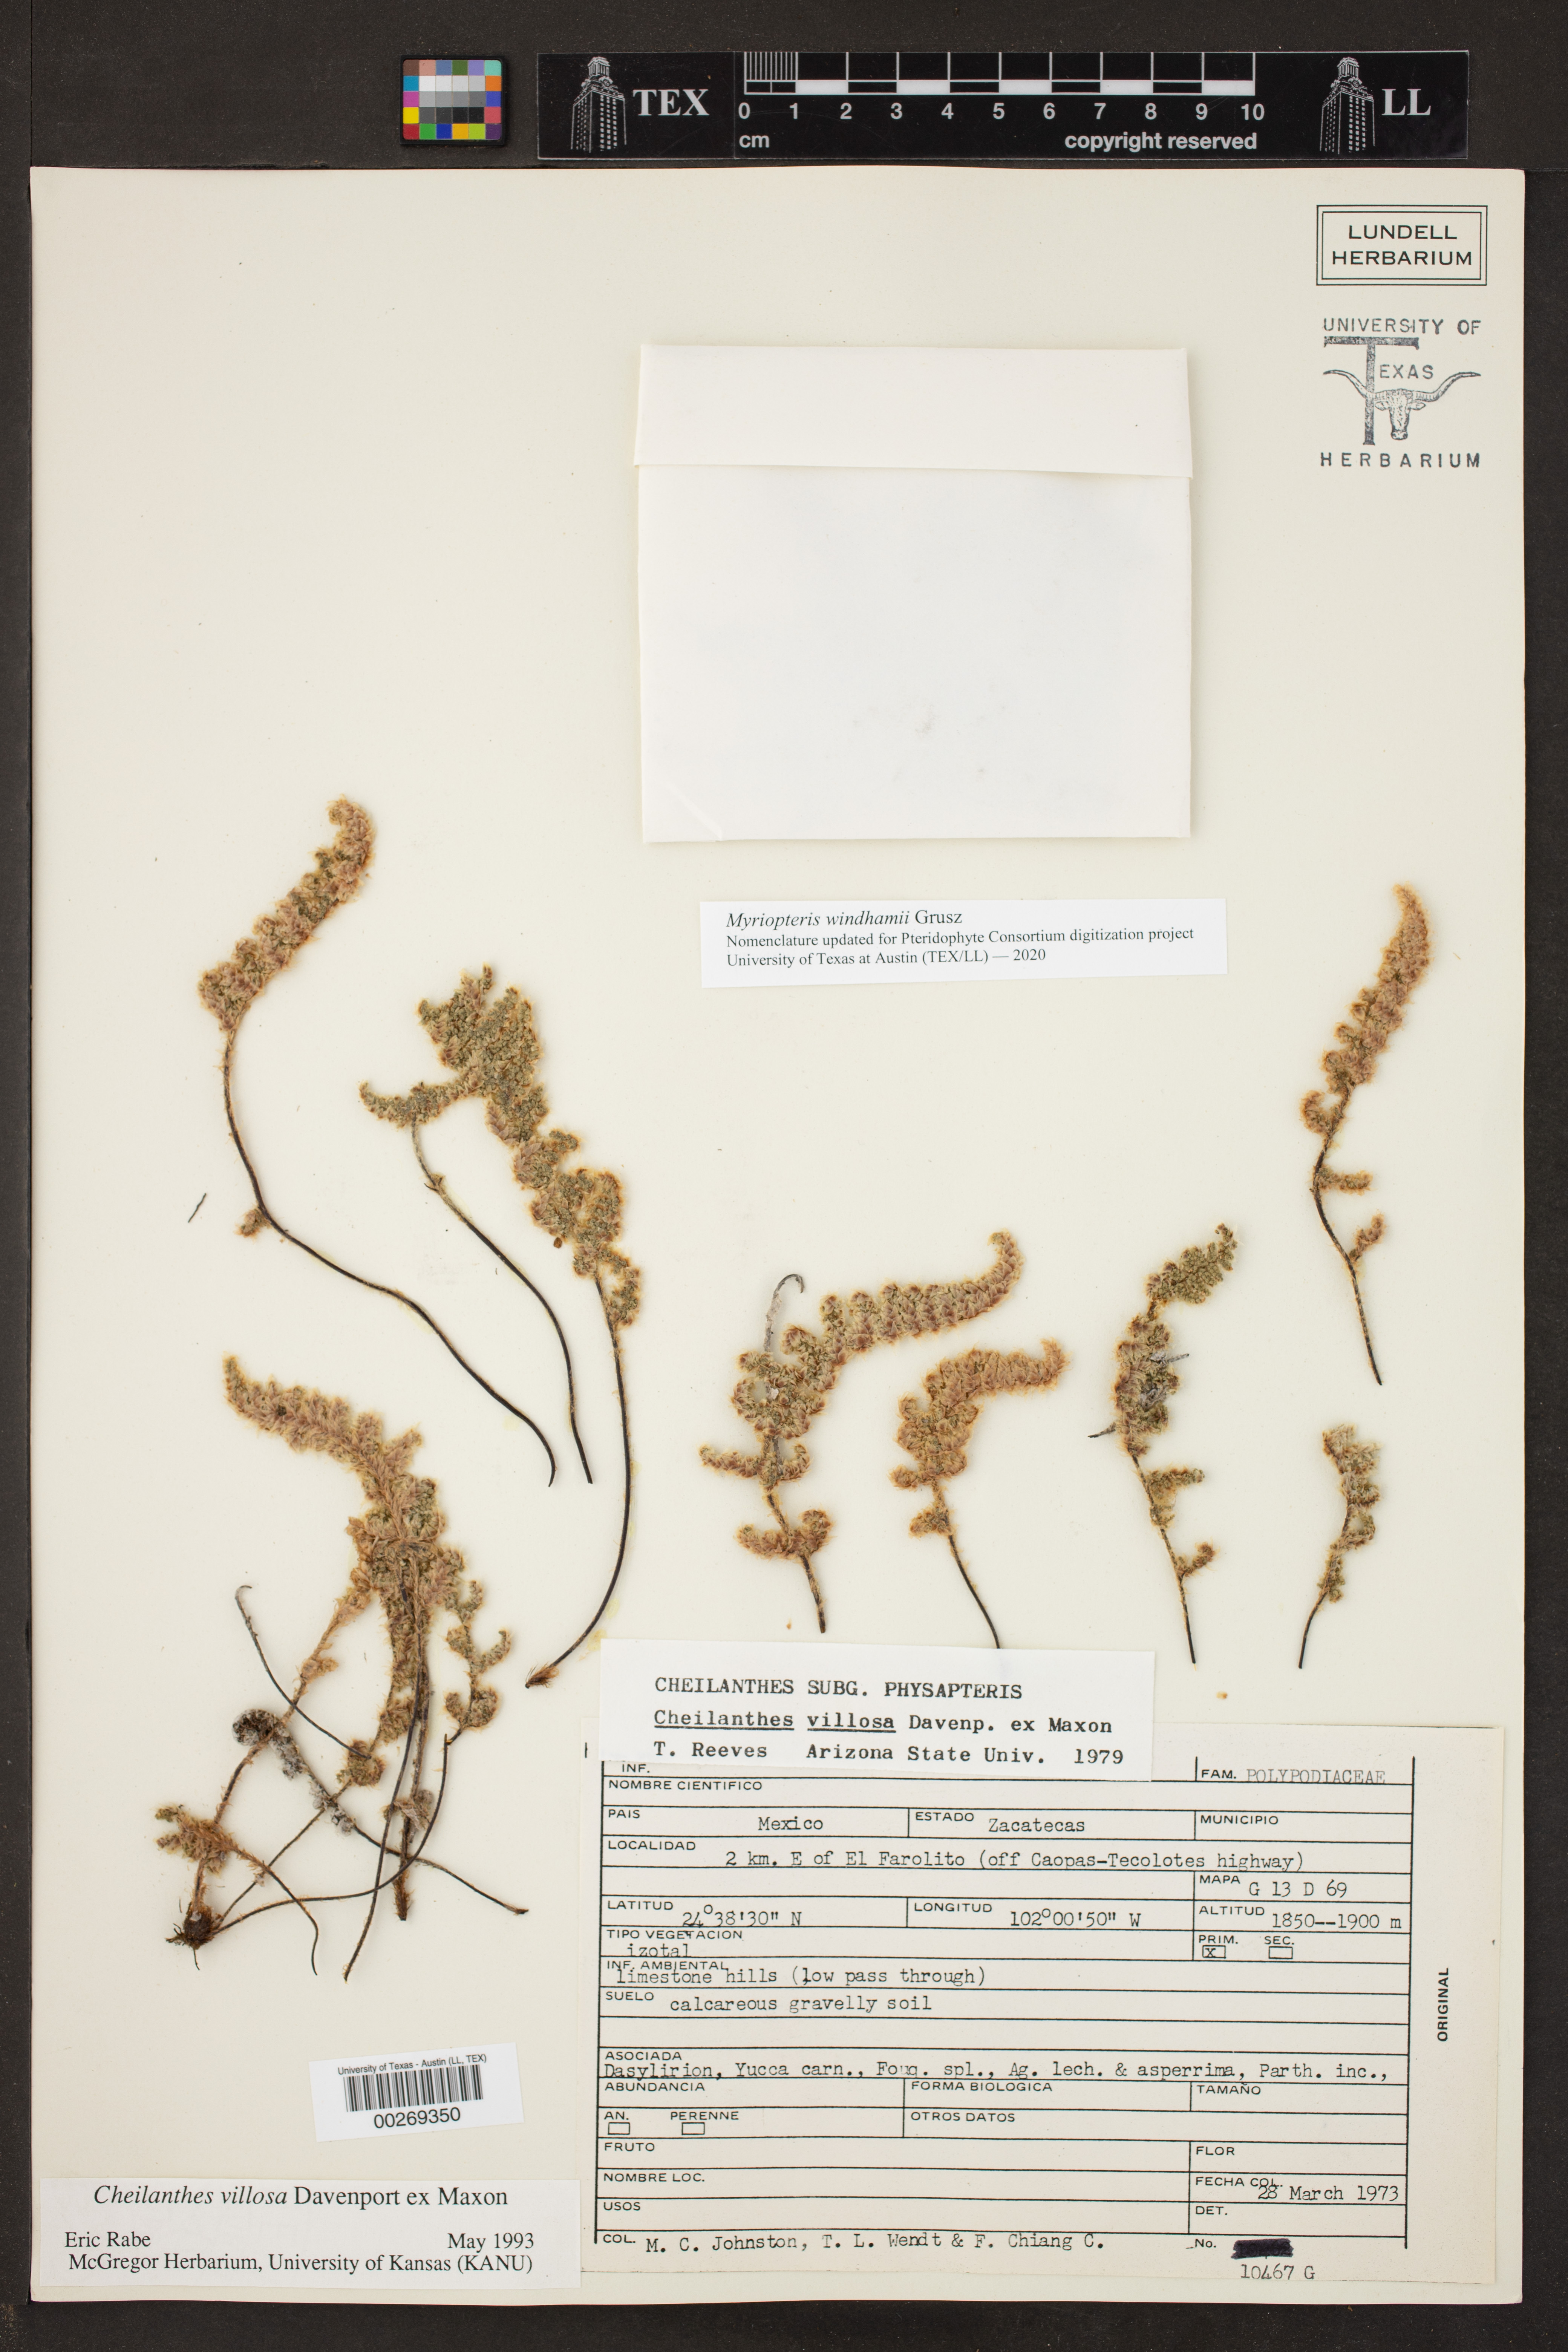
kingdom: Plantae
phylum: Tracheophyta
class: Polypodiopsida
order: Polypodiales
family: Pteridaceae
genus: Cheilanthes
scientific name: Cheilanthes villosa
